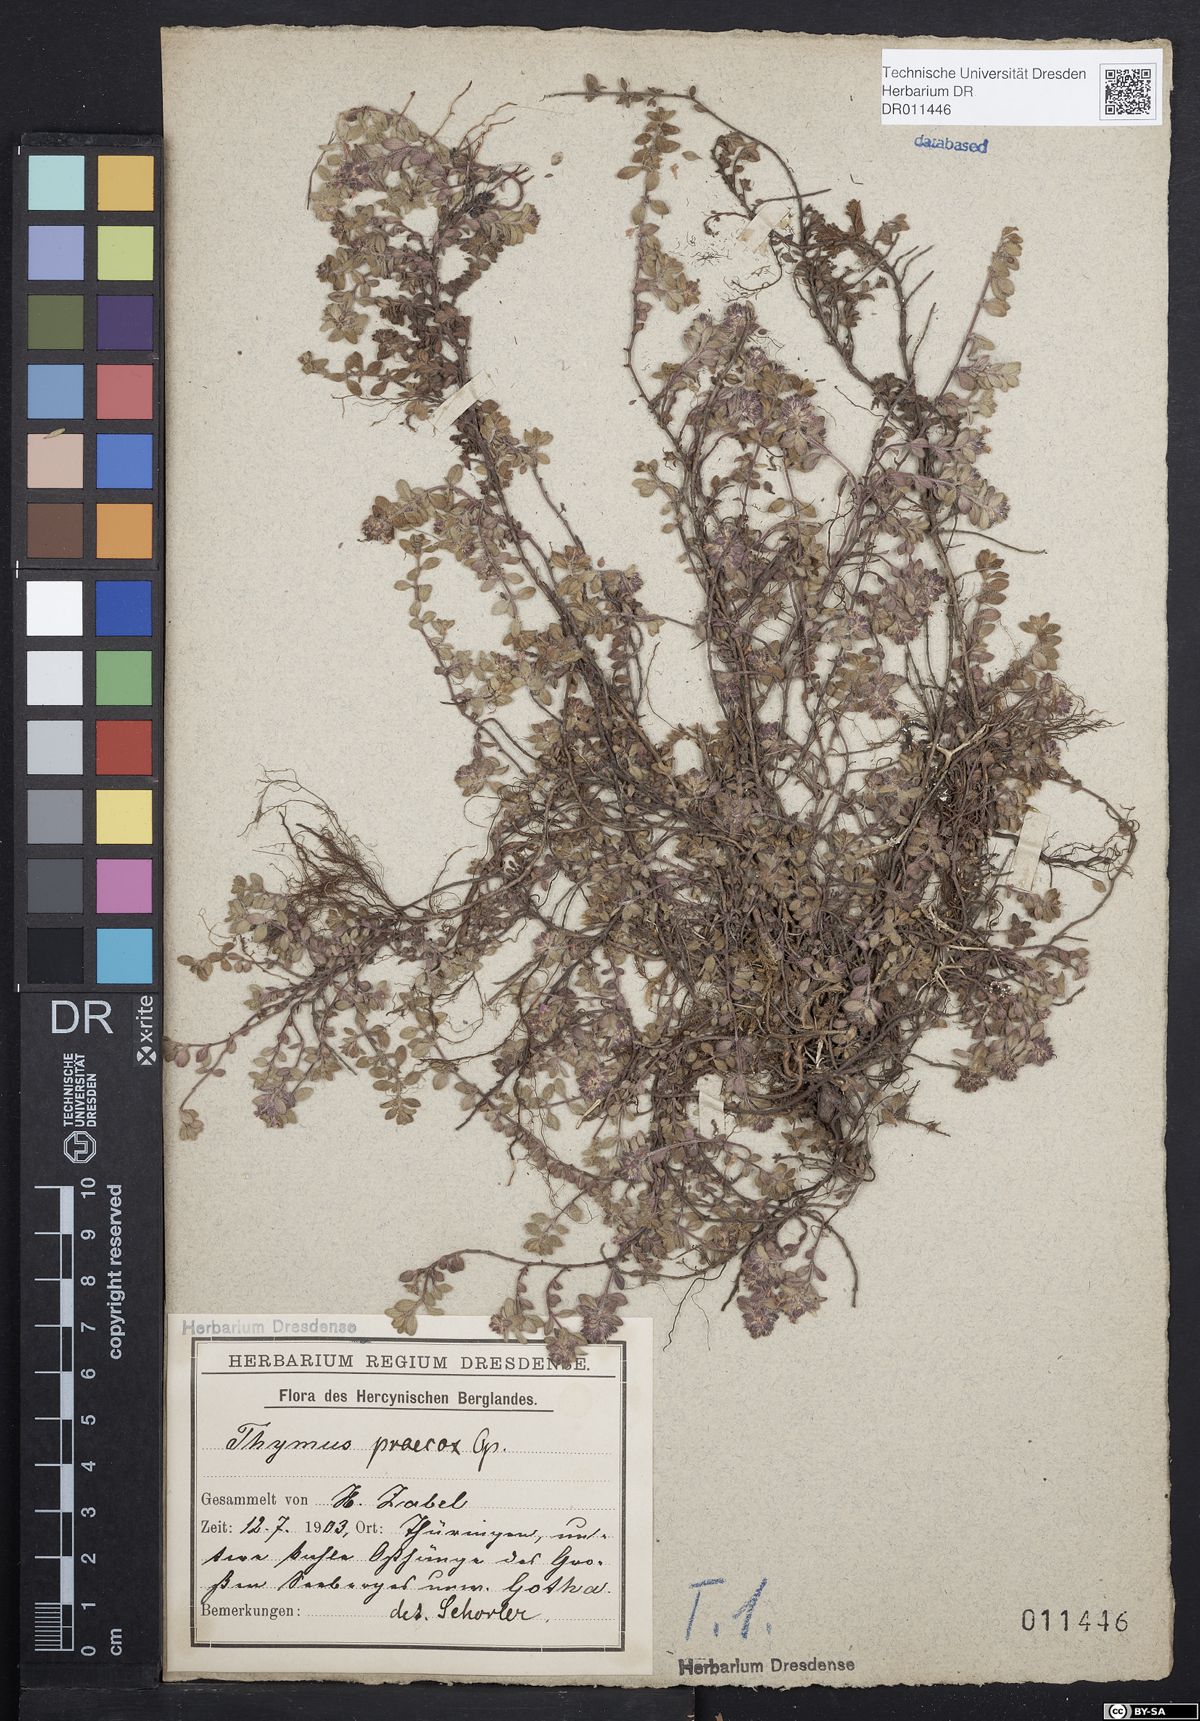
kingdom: Plantae
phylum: Tracheophyta
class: Magnoliopsida
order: Lamiales
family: Lamiaceae
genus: Thymus
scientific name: Thymus praecox
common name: Wild thyme
